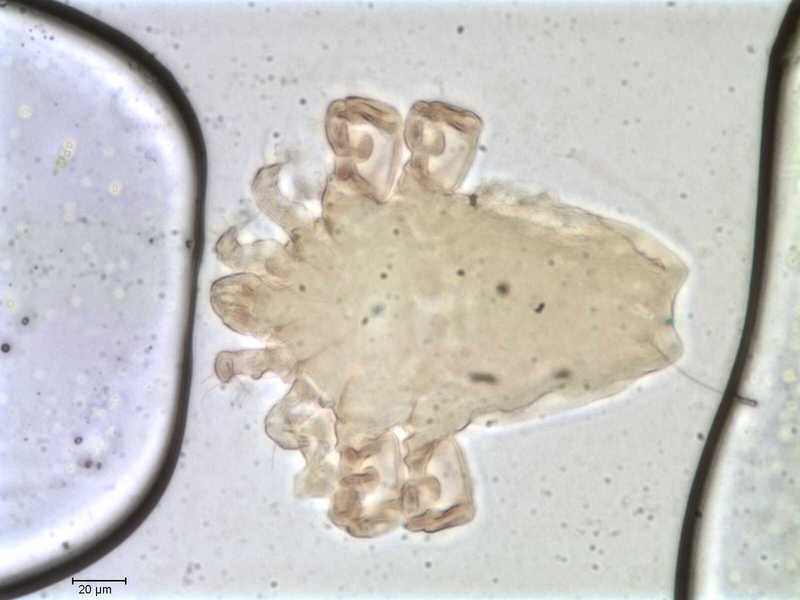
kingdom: Animalia
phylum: Arthropoda
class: Arachnida
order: Sarcoptiformes
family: Myocoptidae
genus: Gliricoptes
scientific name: Gliricoptes
